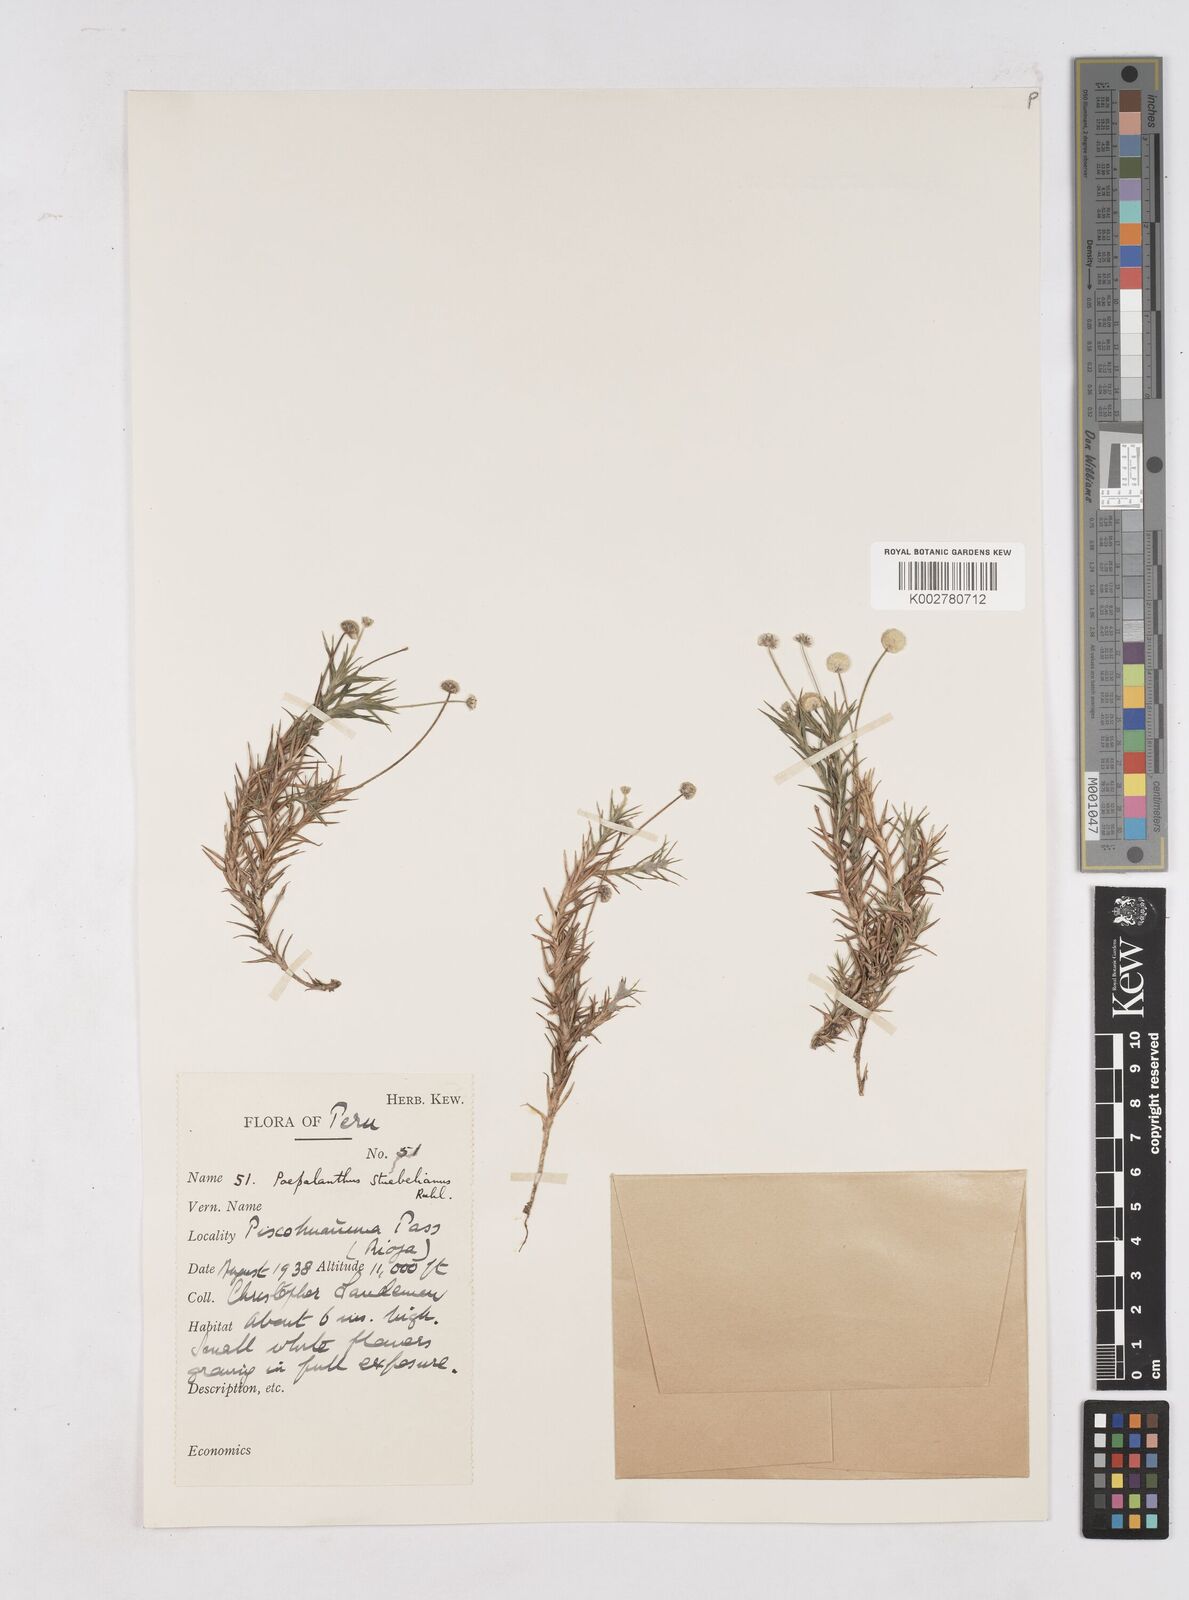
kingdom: Plantae
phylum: Tracheophyta
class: Liliopsida
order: Poales
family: Eriocaulaceae
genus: Paepalanthus
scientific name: Paepalanthus intermedius
